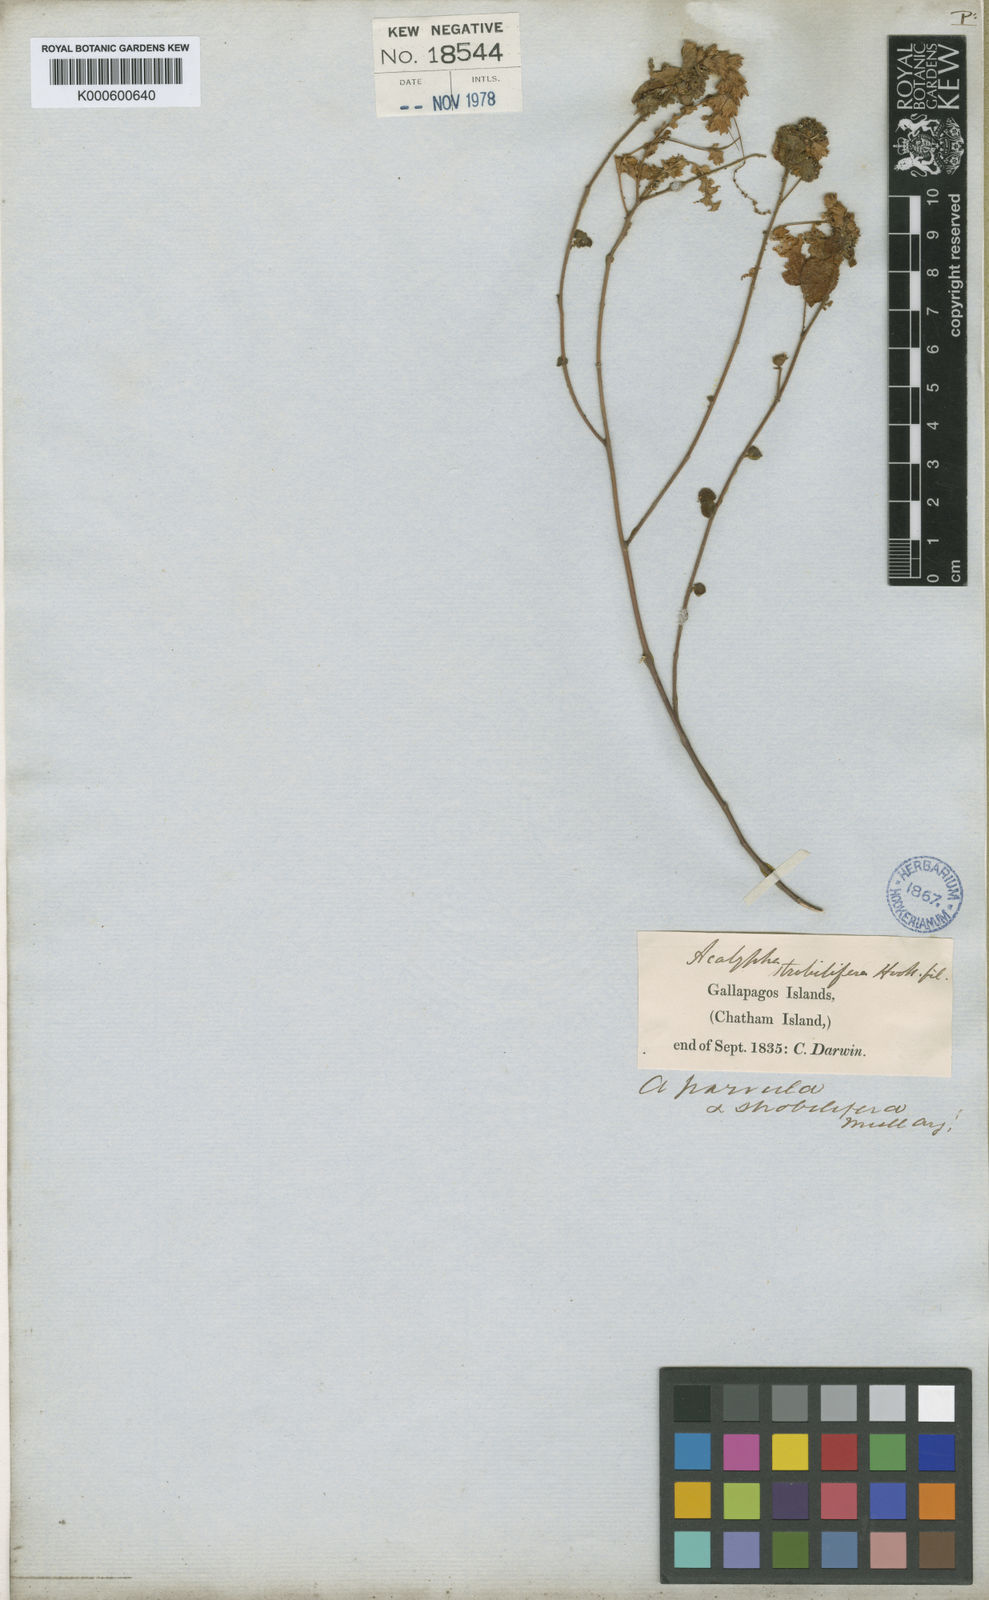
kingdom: Plantae
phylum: Tracheophyta
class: Magnoliopsida
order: Malpighiales
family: Euphorbiaceae
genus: Acalypha
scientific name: Acalypha parvula
